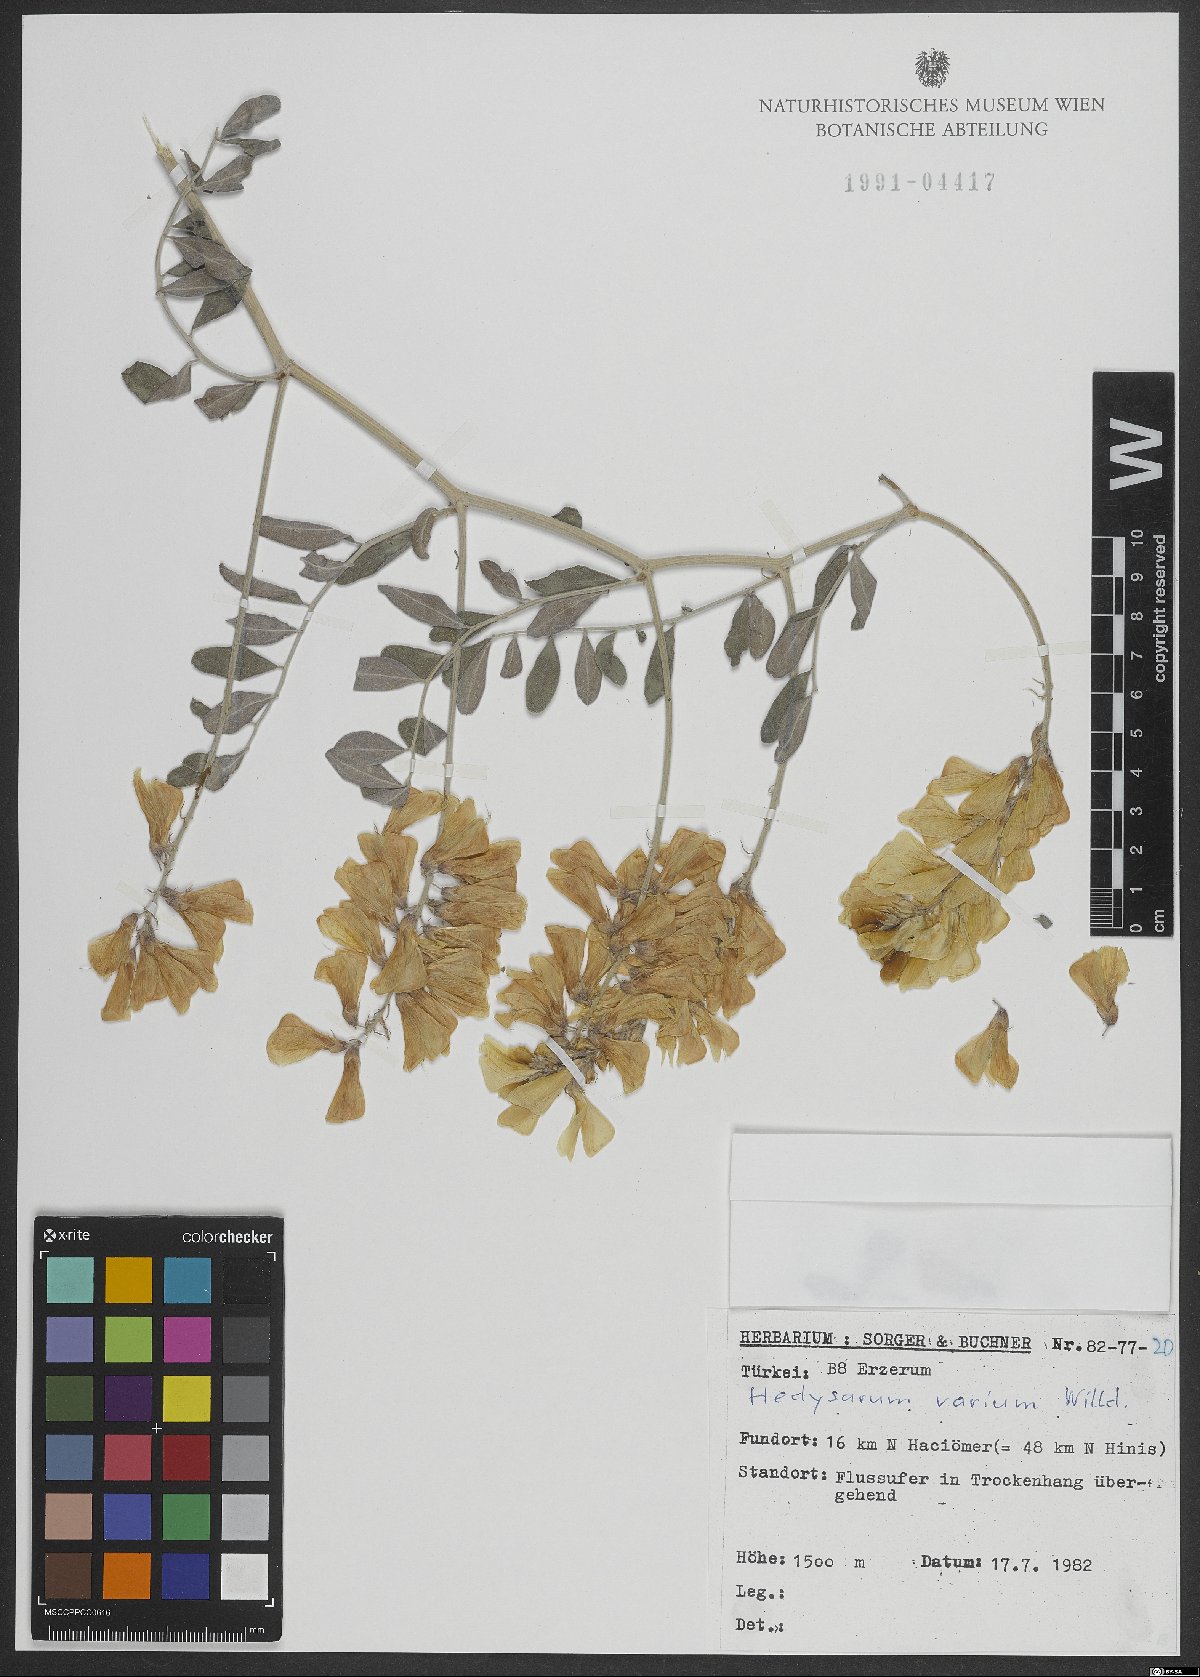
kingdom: Plantae
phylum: Tracheophyta
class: Magnoliopsida
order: Fabales
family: Fabaceae
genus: Hedysarum
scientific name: Hedysarum varium
